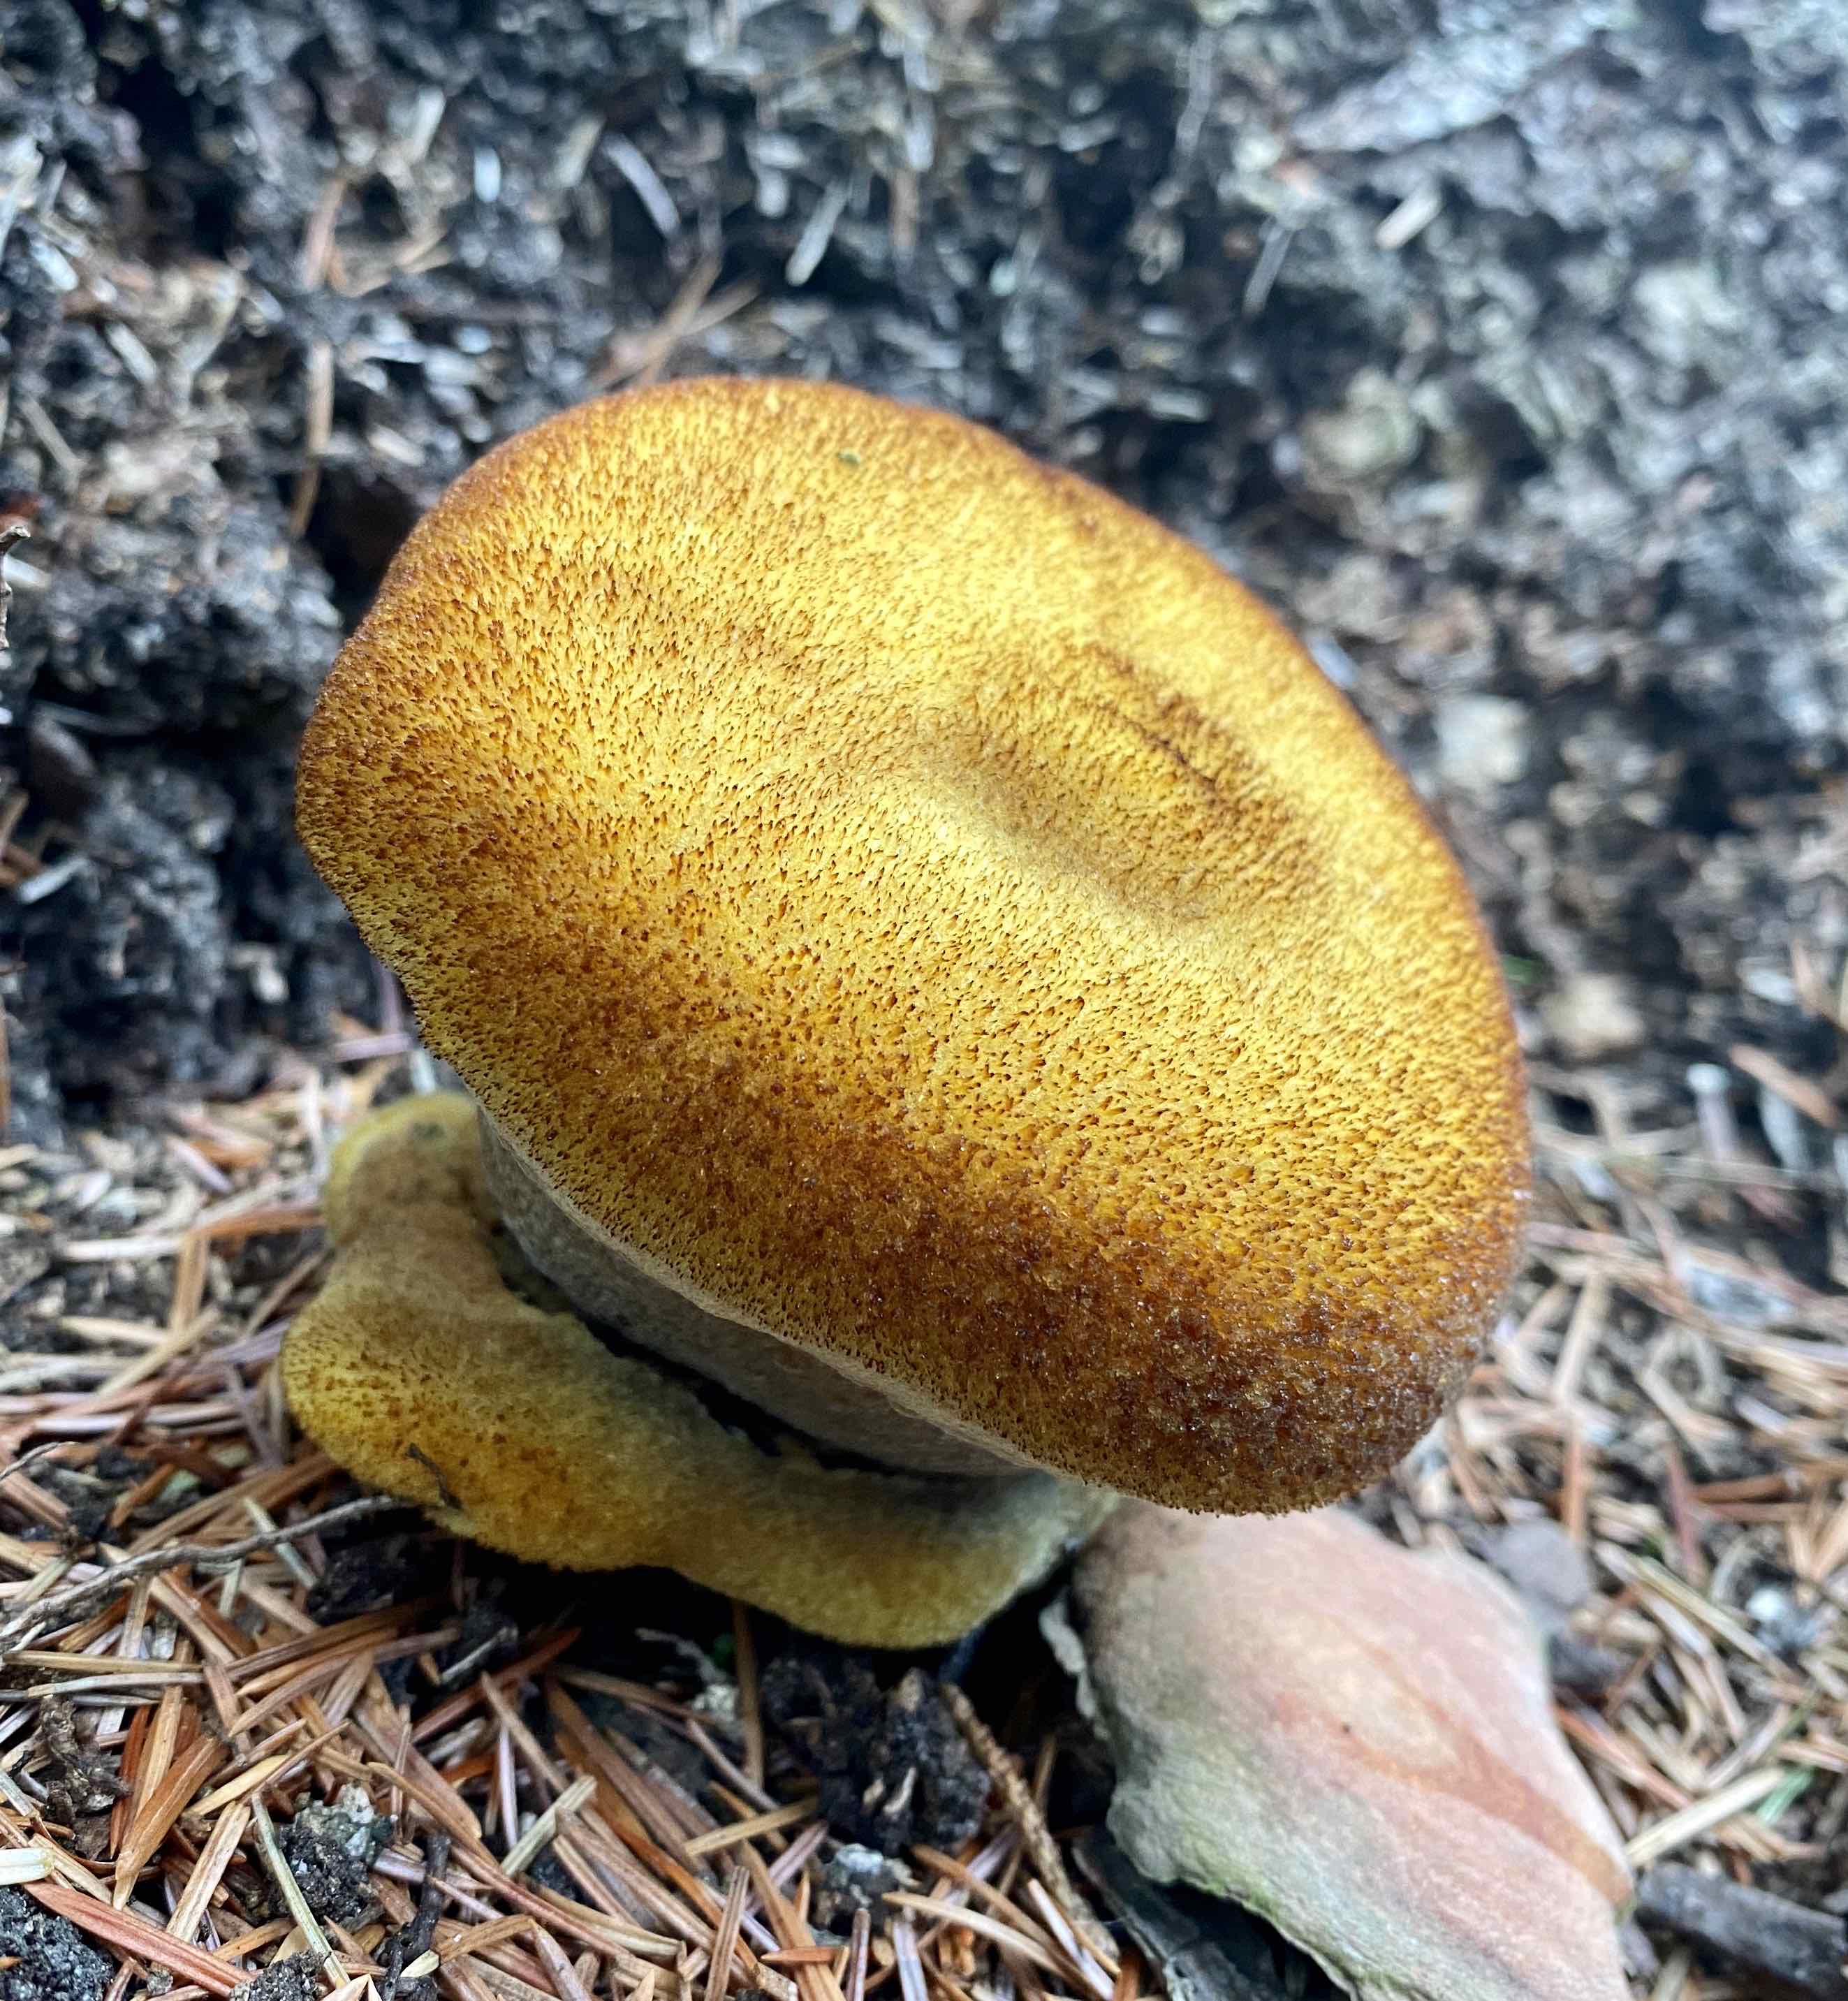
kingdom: Fungi
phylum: Basidiomycota
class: Agaricomycetes
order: Polyporales
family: Laetiporaceae
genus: Phaeolus
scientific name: Phaeolus schweinitzii
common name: brunporesvamp
